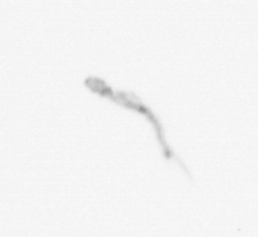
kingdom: Chromista
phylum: Ochrophyta
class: Bacillariophyceae
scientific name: Bacillariophyceae
